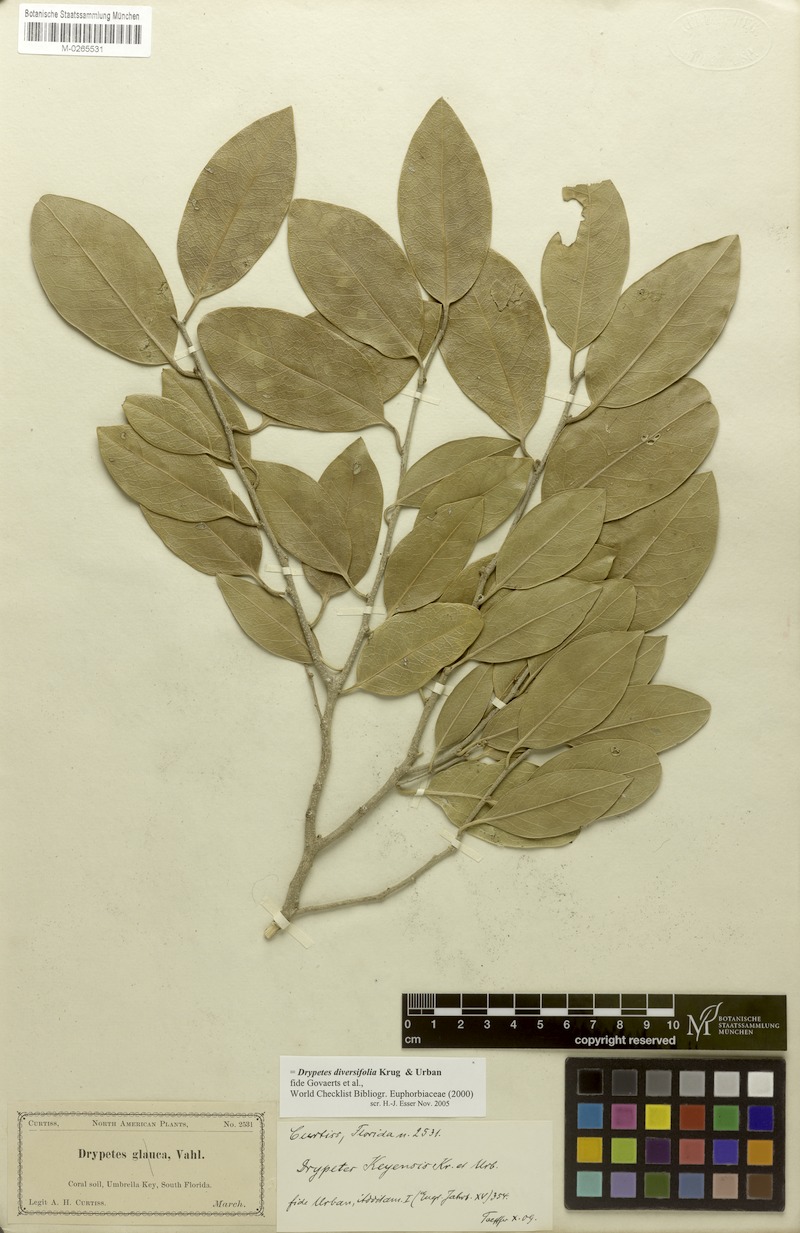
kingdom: Plantae
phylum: Tracheophyta
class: Magnoliopsida
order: Malpighiales
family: Putranjivaceae
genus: Drypetes
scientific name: Drypetes diversifolia
